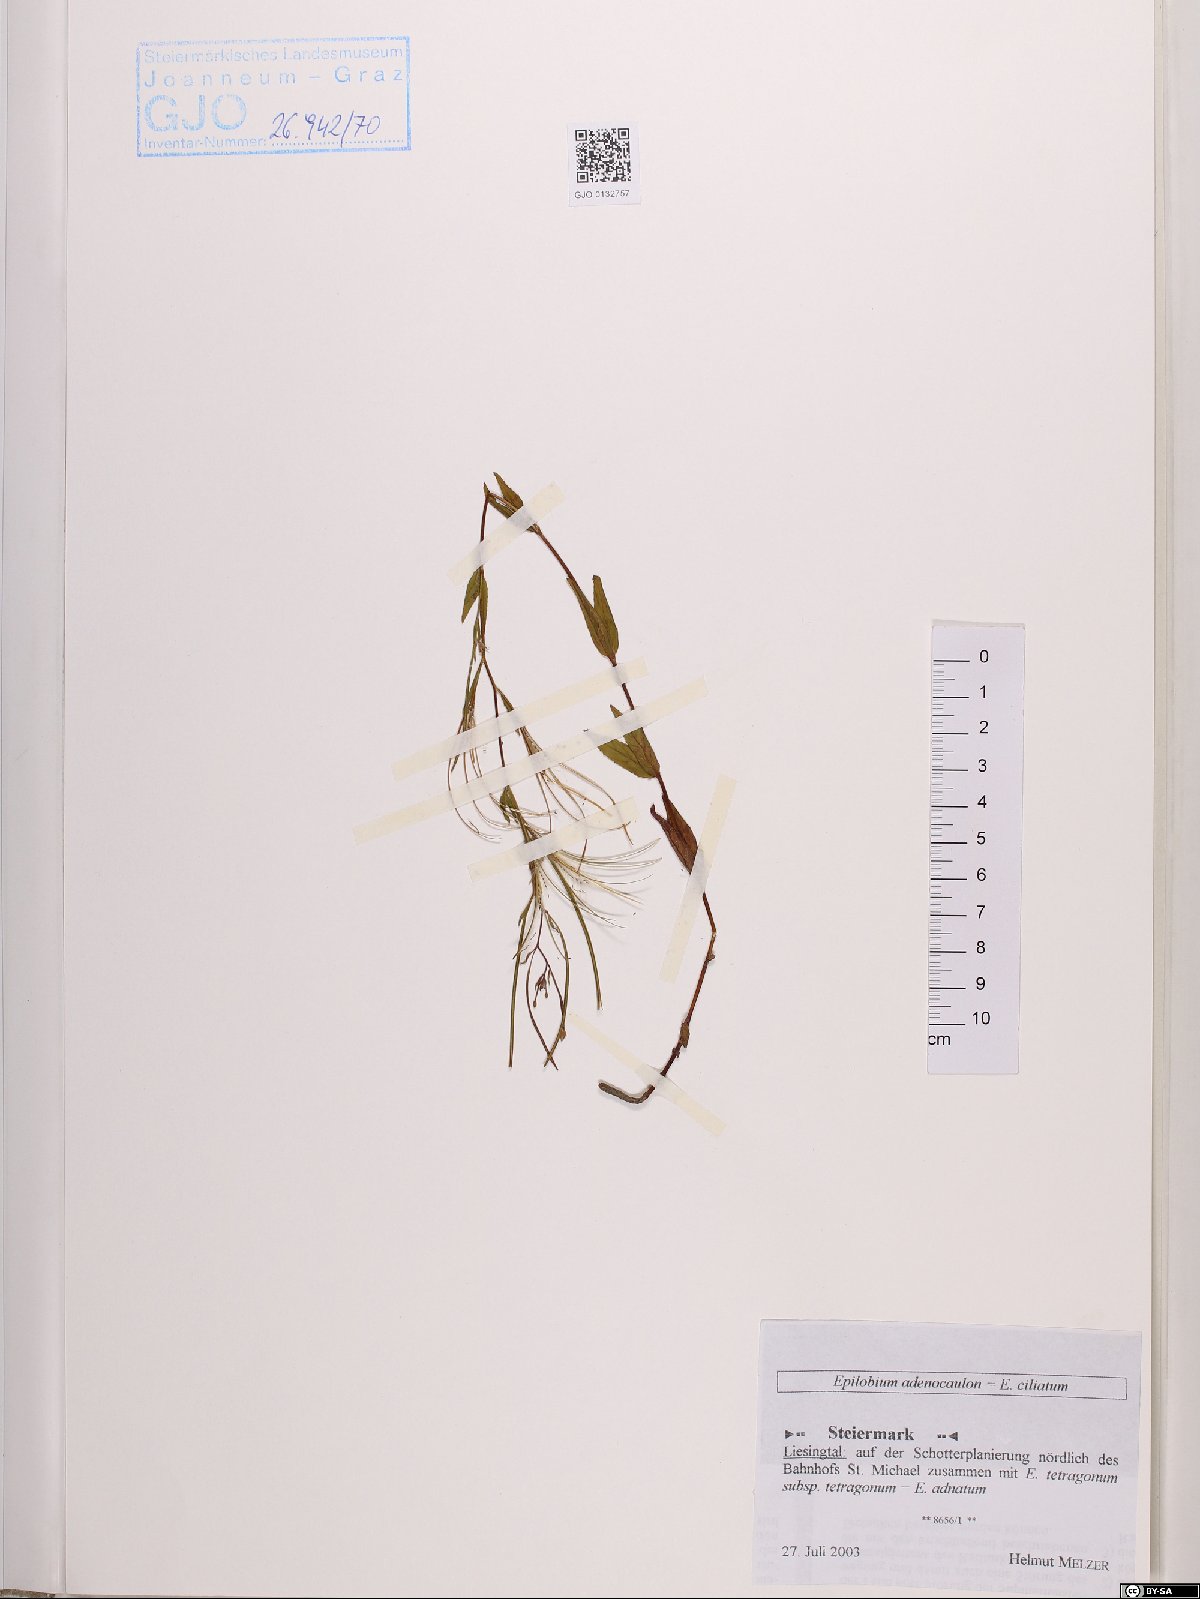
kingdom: Plantae
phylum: Tracheophyta
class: Magnoliopsida
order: Myrtales
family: Onagraceae
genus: Epilobium
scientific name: Epilobium ciliatum
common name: American willowherb
